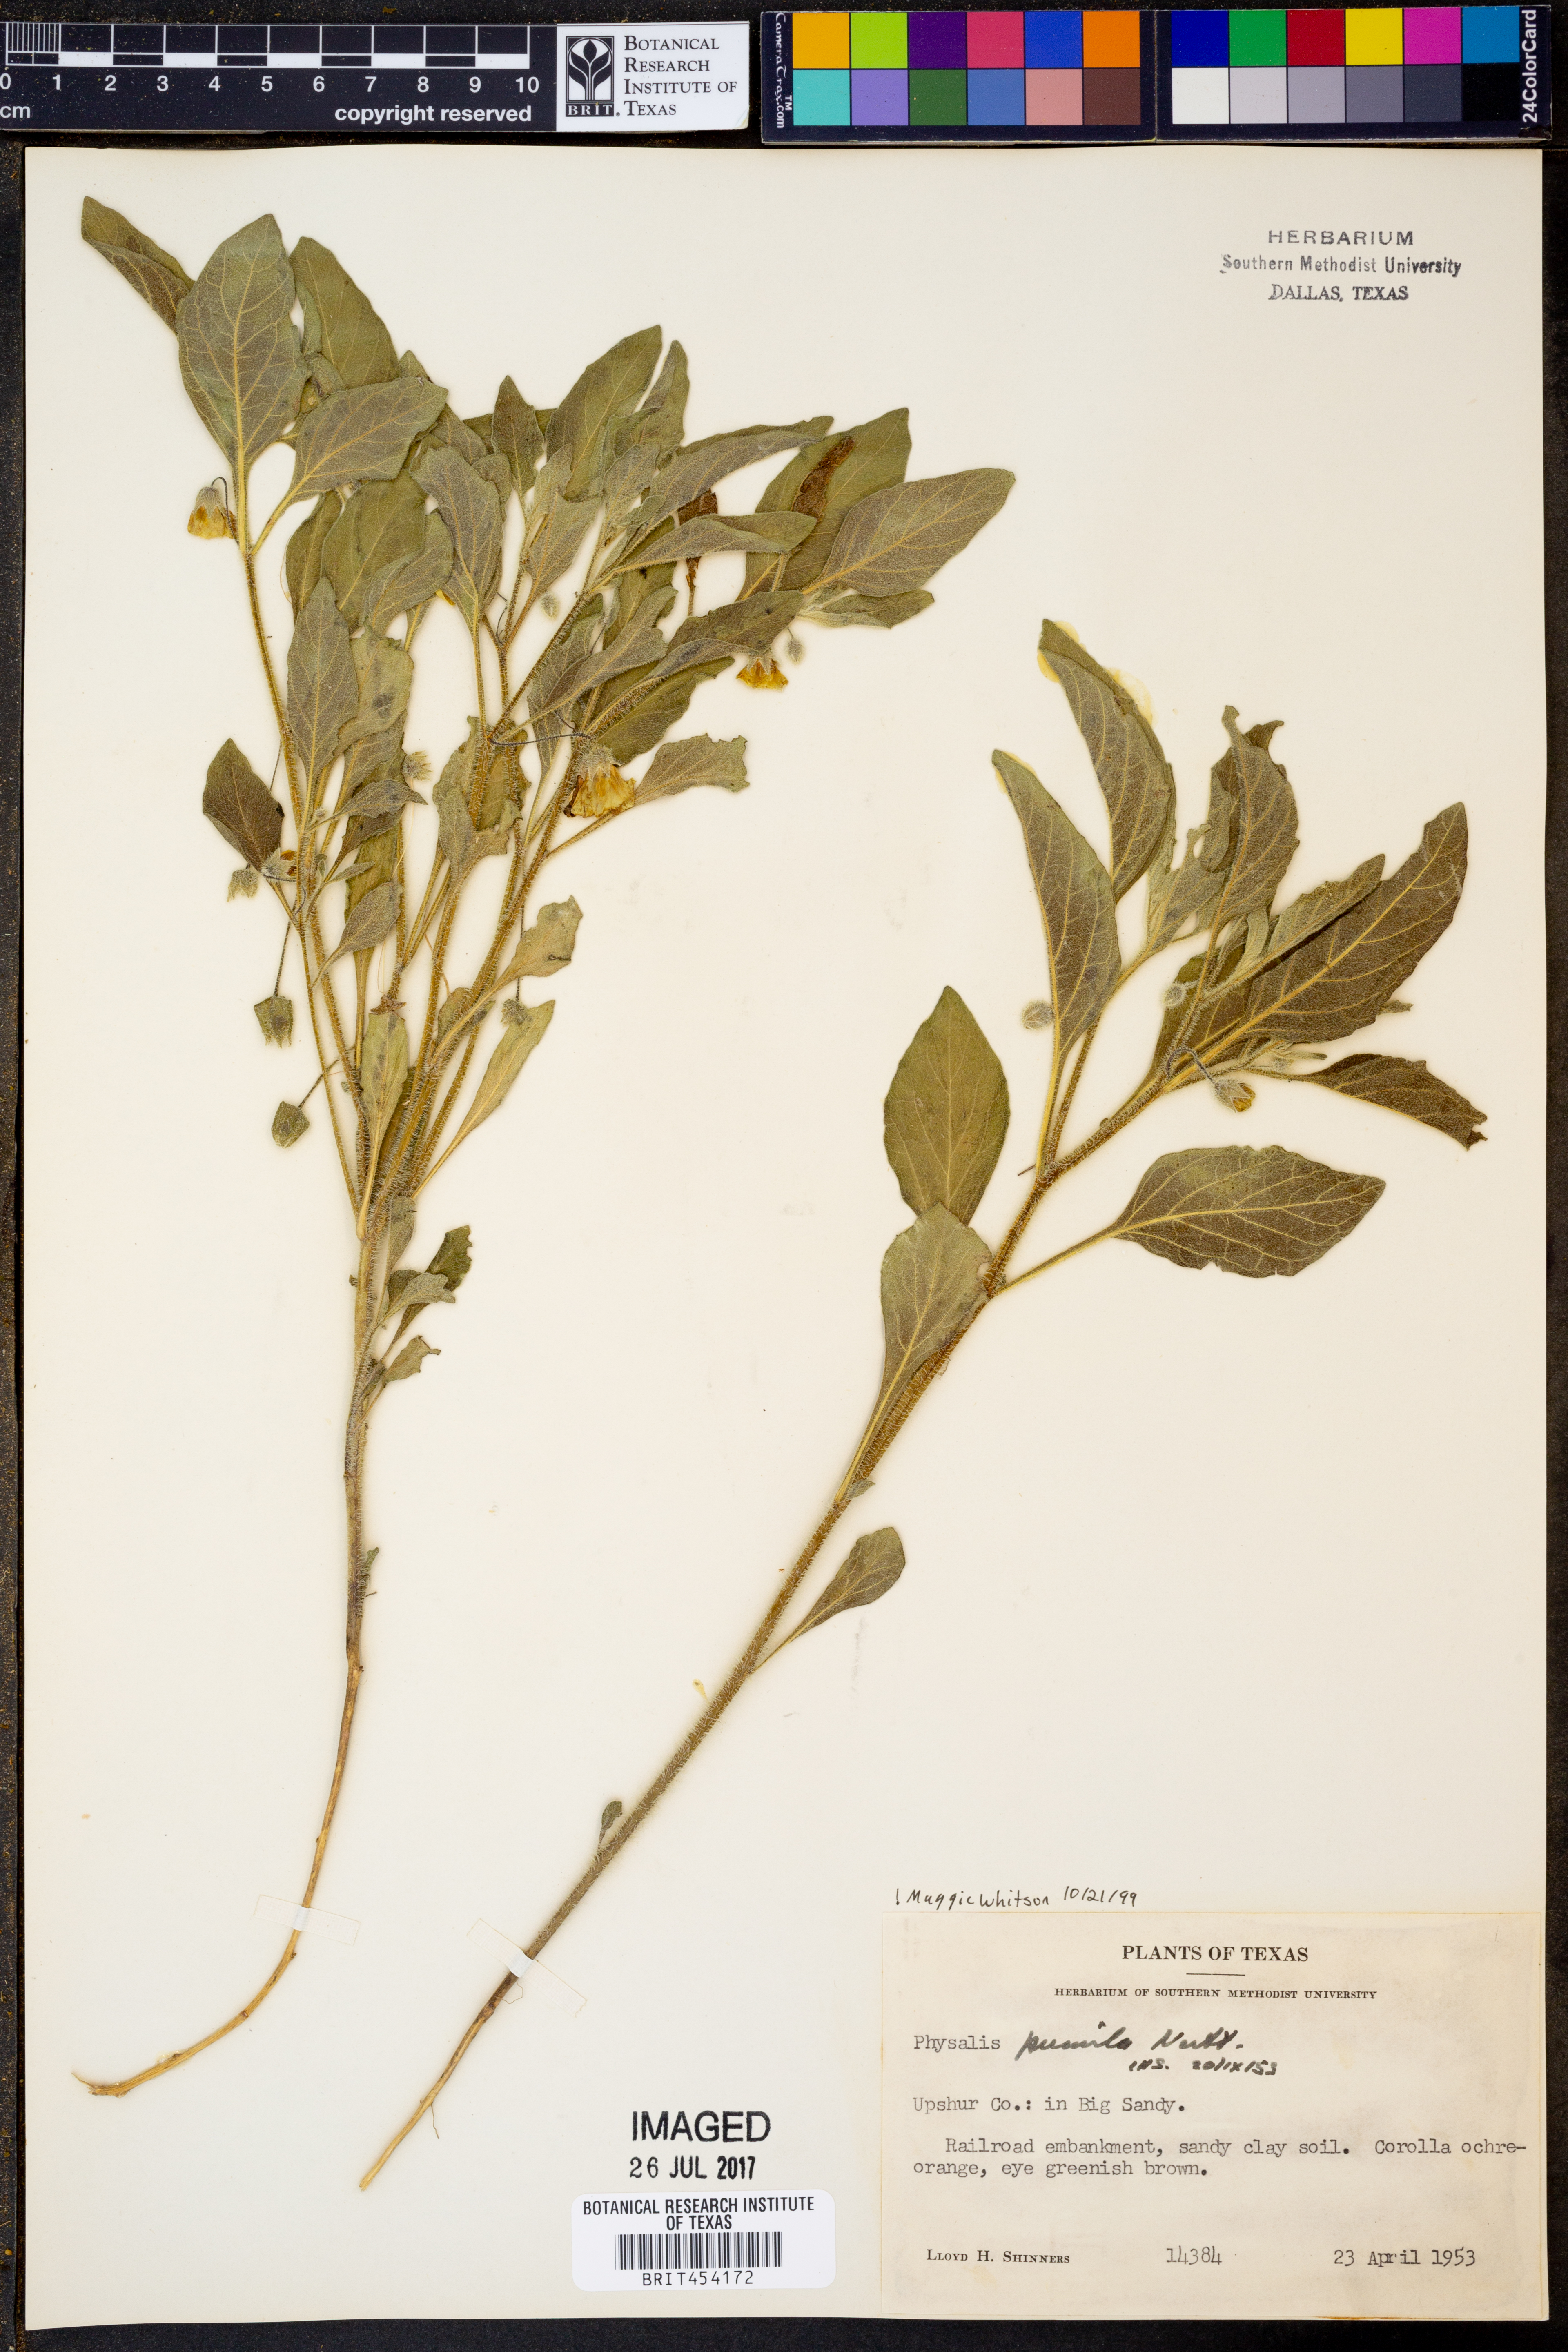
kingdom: Plantae
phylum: Tracheophyta
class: Magnoliopsida
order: Solanales
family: Solanaceae
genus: Physalis
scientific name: Physalis pumila
